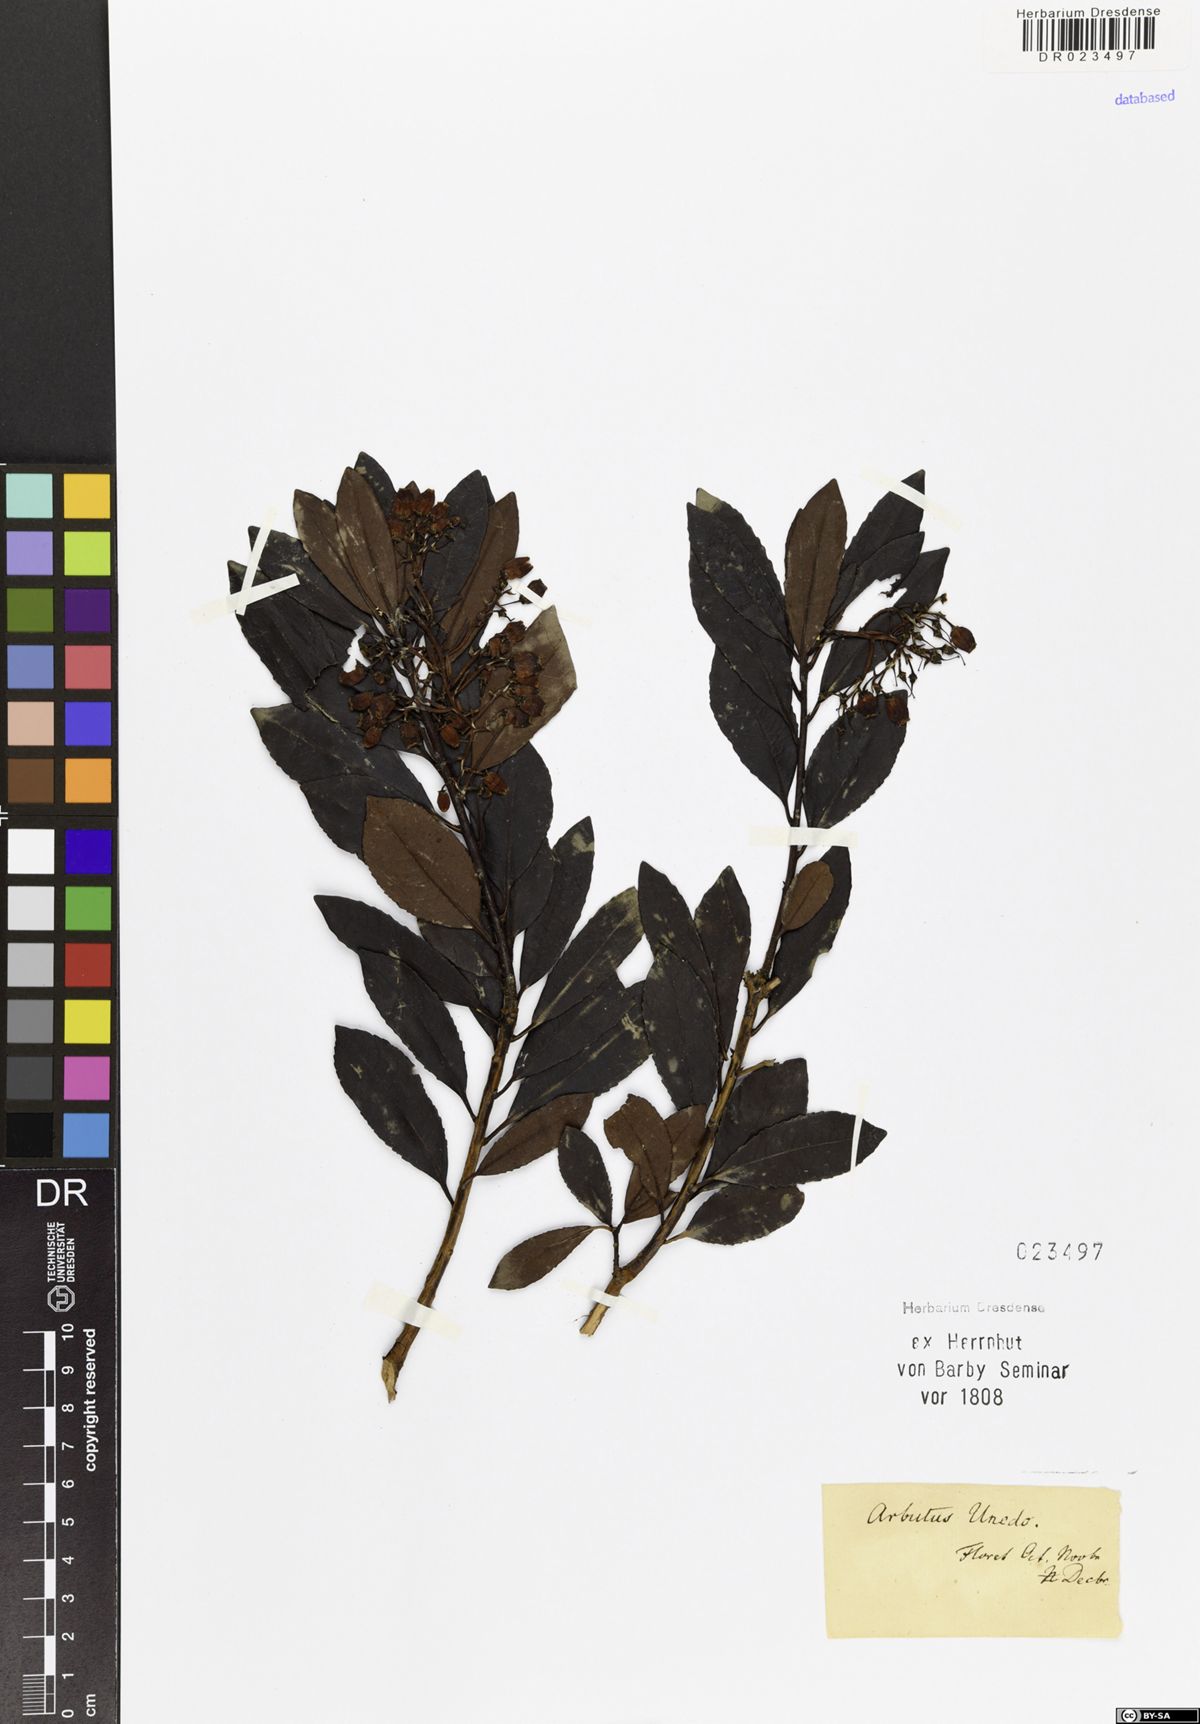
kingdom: Plantae
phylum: Tracheophyta
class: Magnoliopsida
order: Ericales
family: Ericaceae
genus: Arbutus
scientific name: Arbutus unedo
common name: Strawberry-tree
